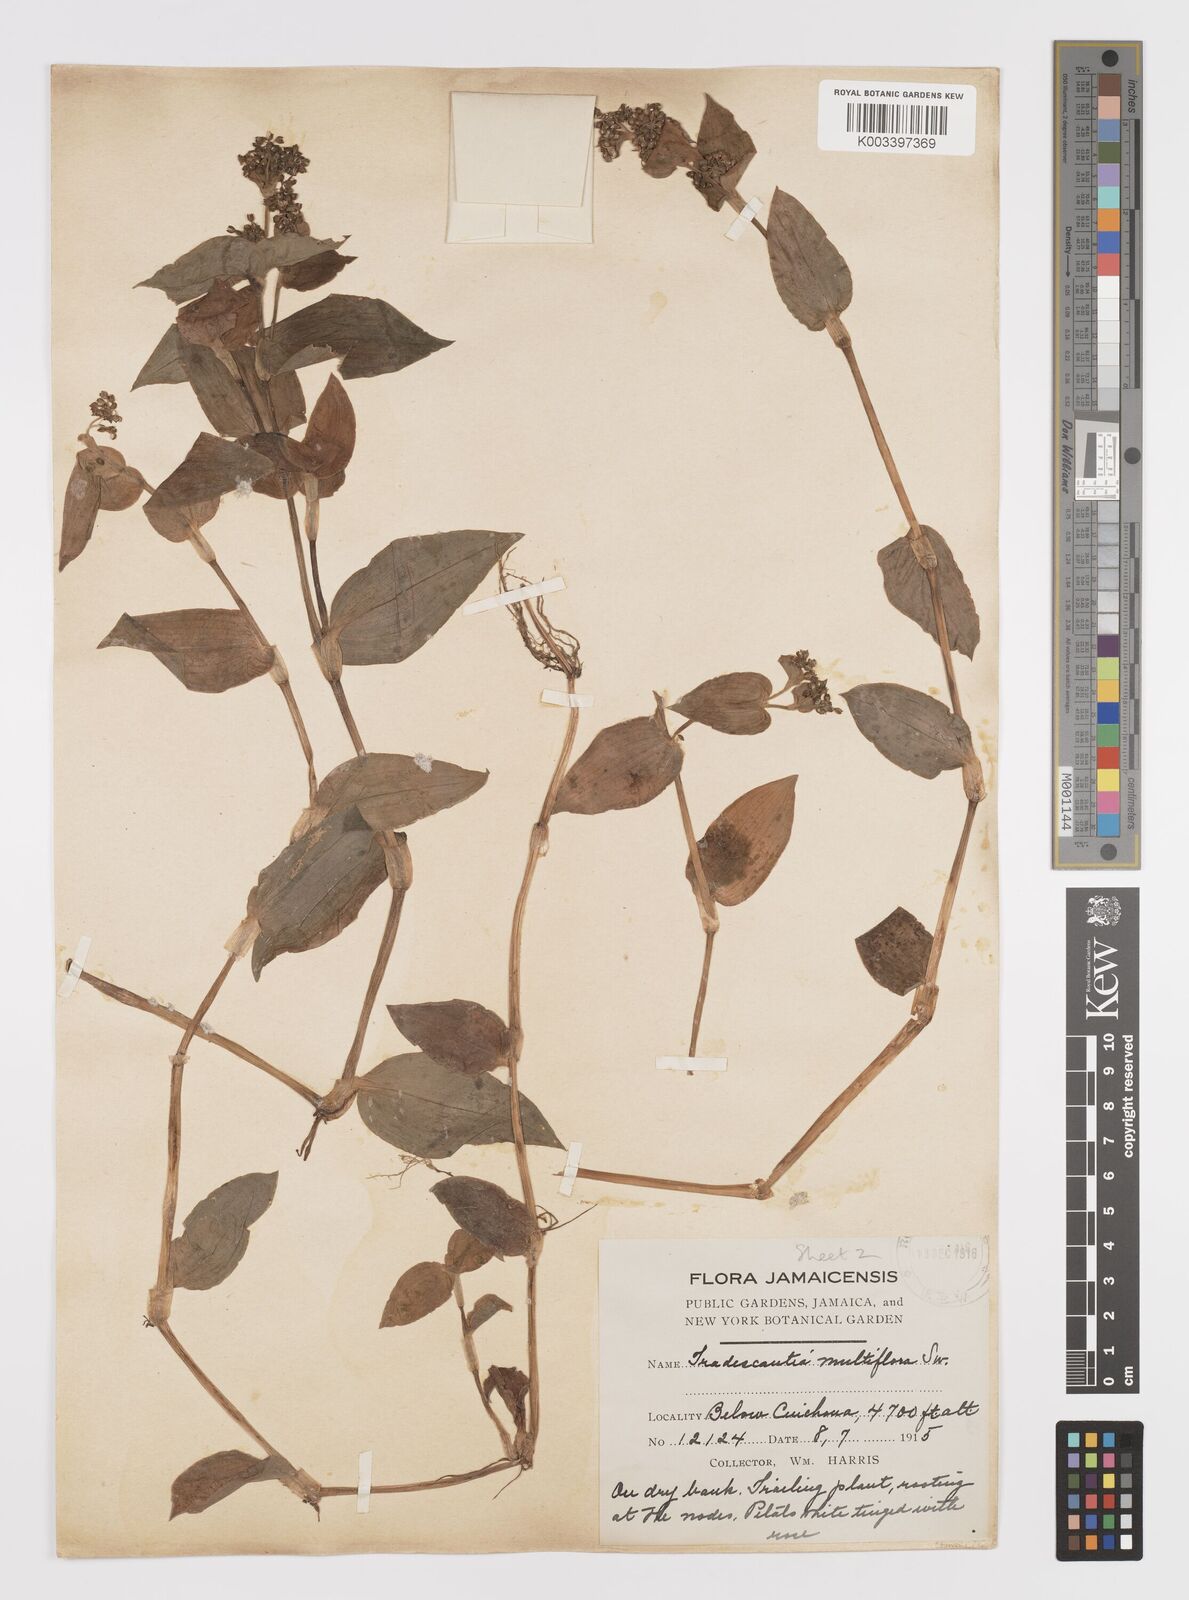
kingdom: Plantae
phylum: Tracheophyta
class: Liliopsida
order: Commelinales
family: Commelinaceae
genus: Callisia
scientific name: Callisia procumbens
